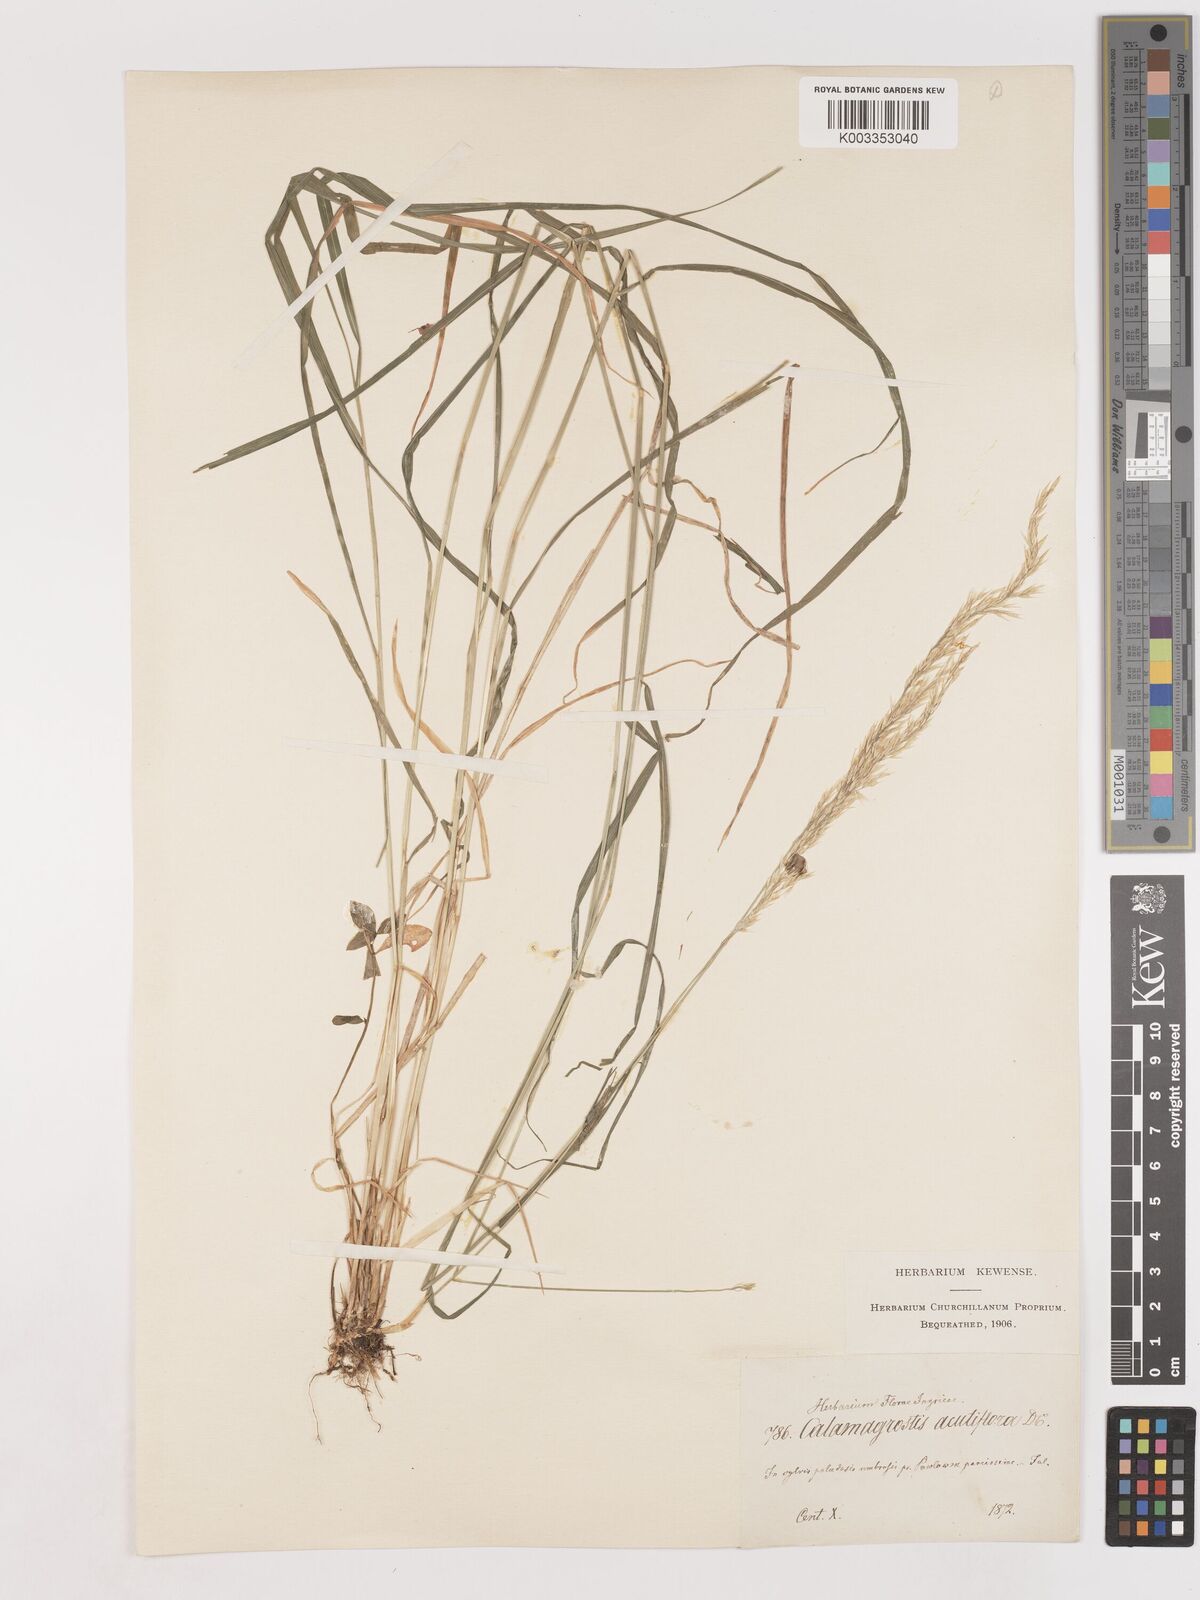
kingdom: Plantae
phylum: Tracheophyta
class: Liliopsida
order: Poales
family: Poaceae
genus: Calamagrostis
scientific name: Calamagrostis epigejos
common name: Wood small-reed
